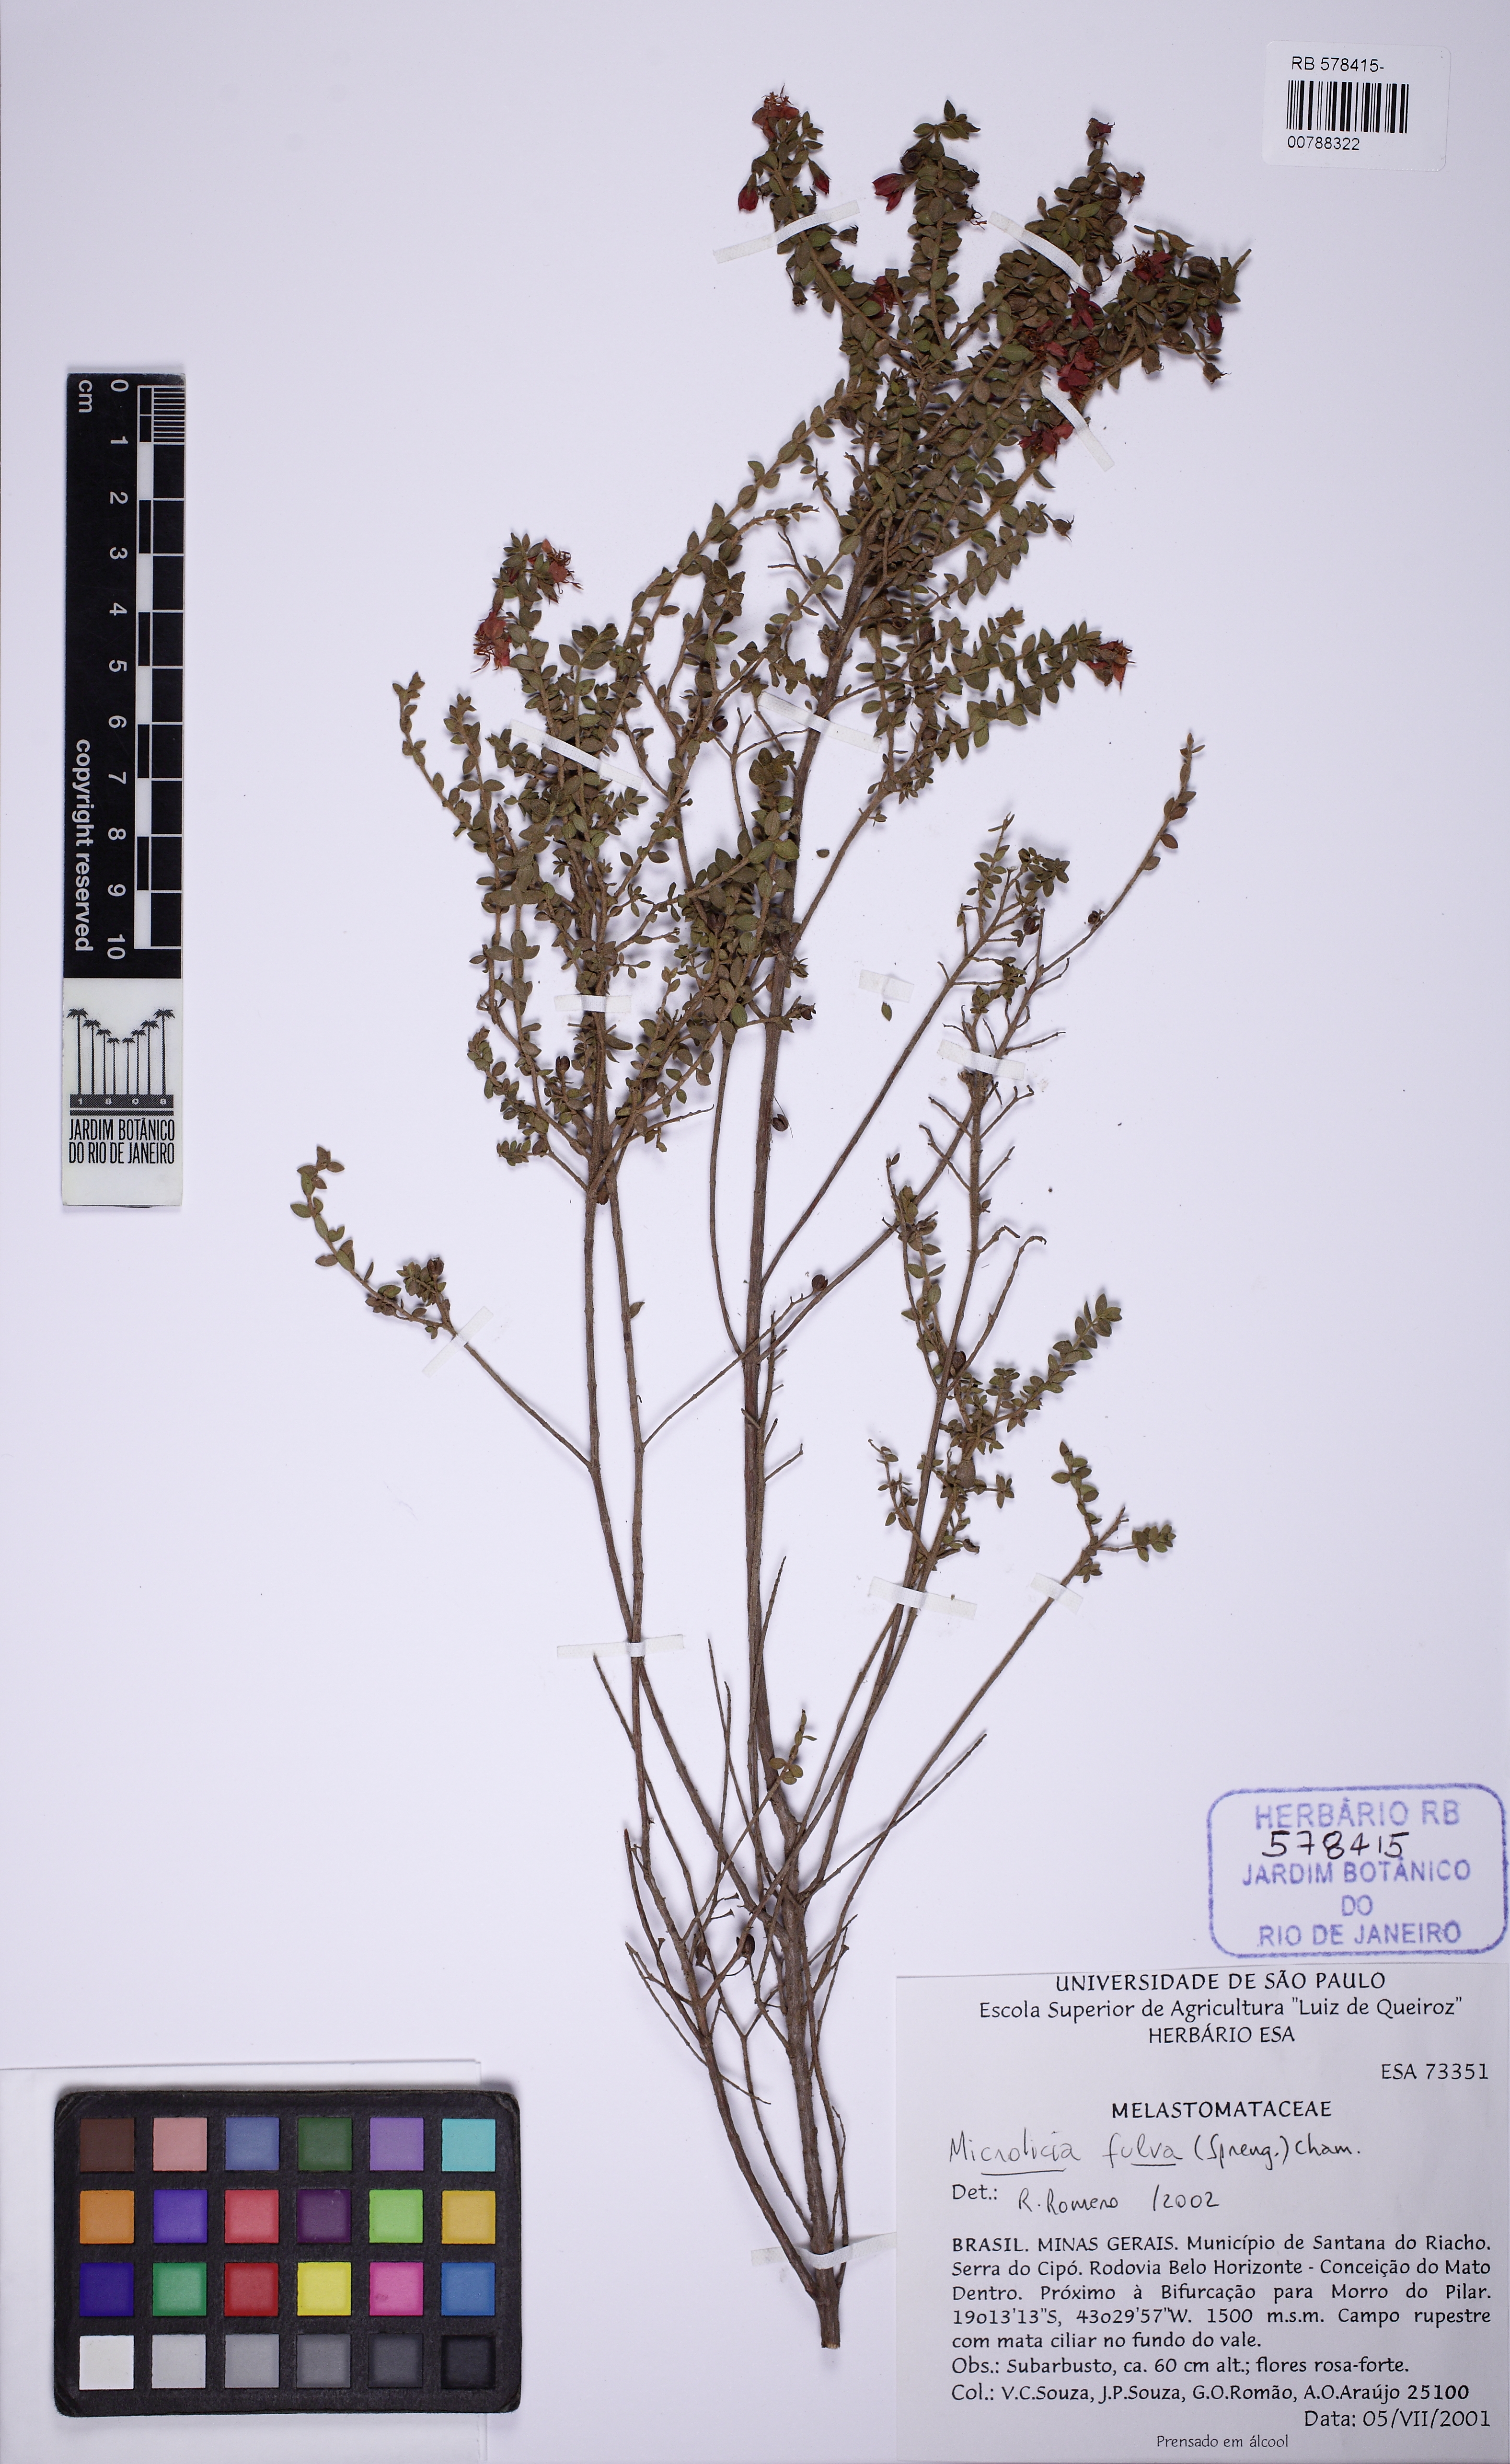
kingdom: Plantae
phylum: Tracheophyta
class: Magnoliopsida
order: Myrtales
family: Melastomataceae
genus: Microlicia
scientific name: Microlicia fulva
